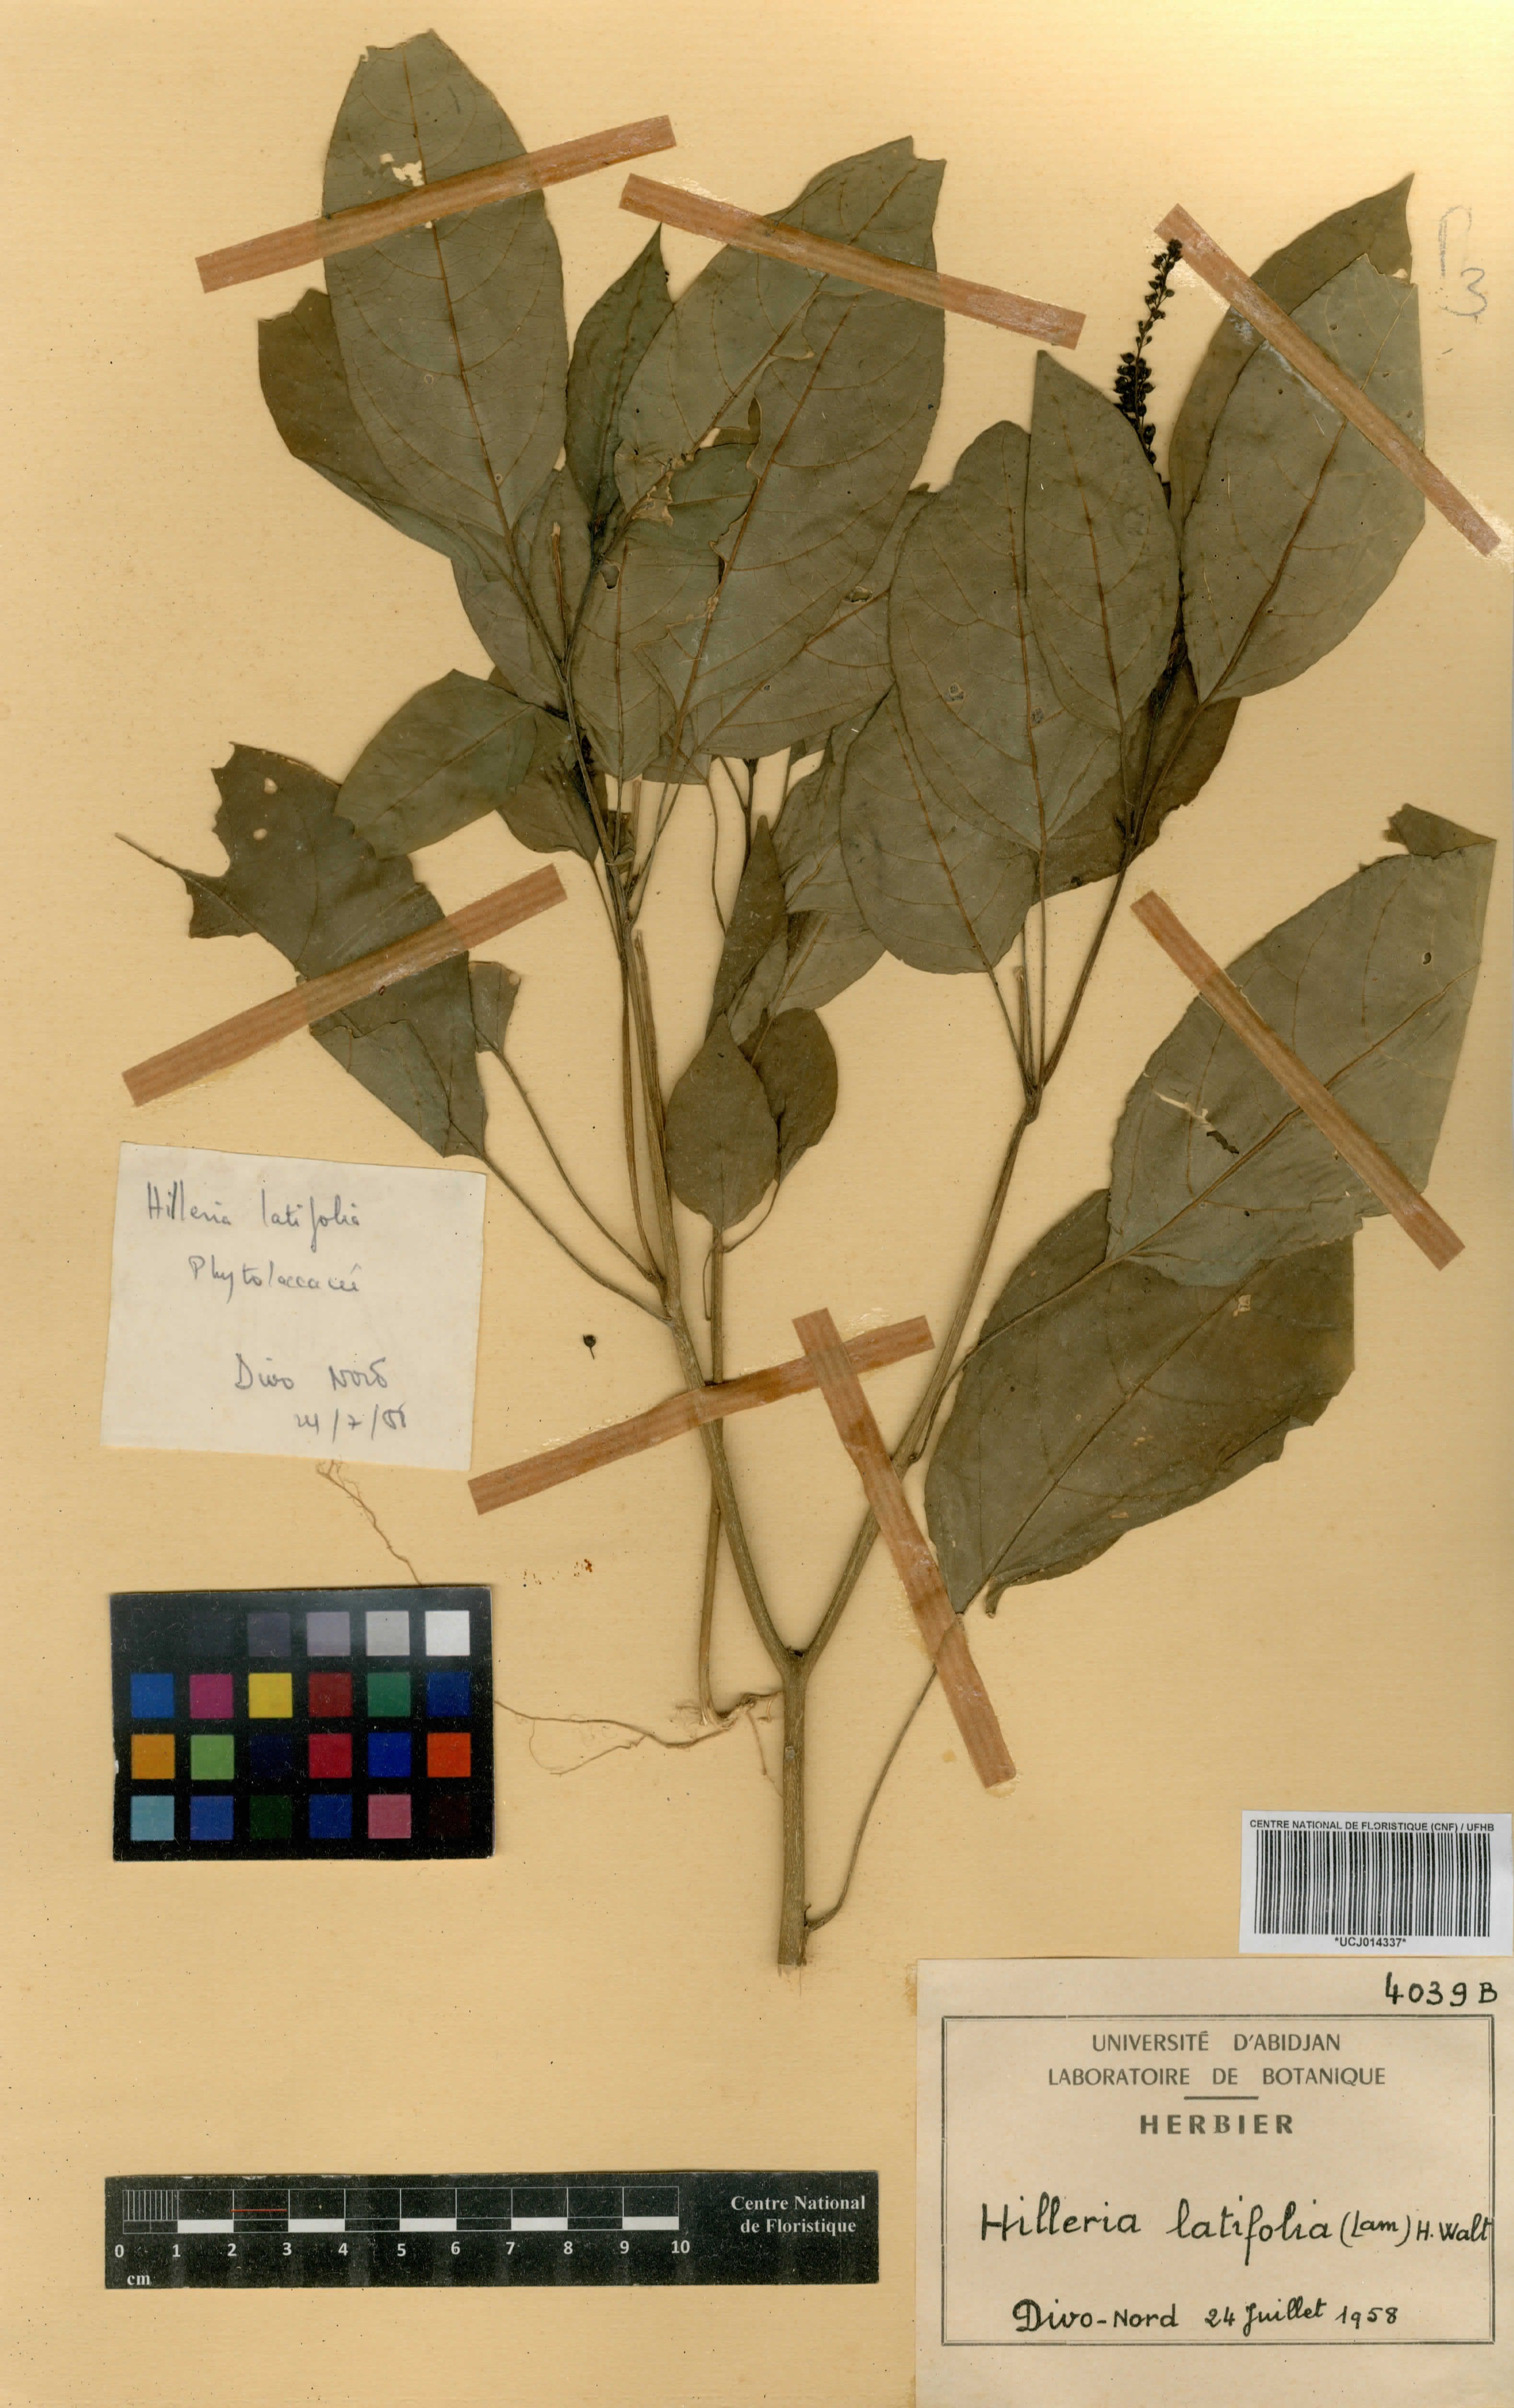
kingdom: Plantae
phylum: Tracheophyta
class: Magnoliopsida
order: Caryophyllales
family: Phytolaccaceae
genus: Hilleria
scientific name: Hilleria latifolia
